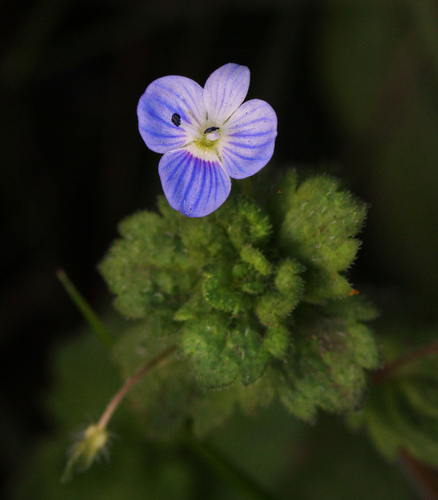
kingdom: Plantae
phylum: Tracheophyta
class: Magnoliopsida
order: Lamiales
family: Plantaginaceae
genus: Veronica
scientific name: Veronica persica
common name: Common field-speedwell
